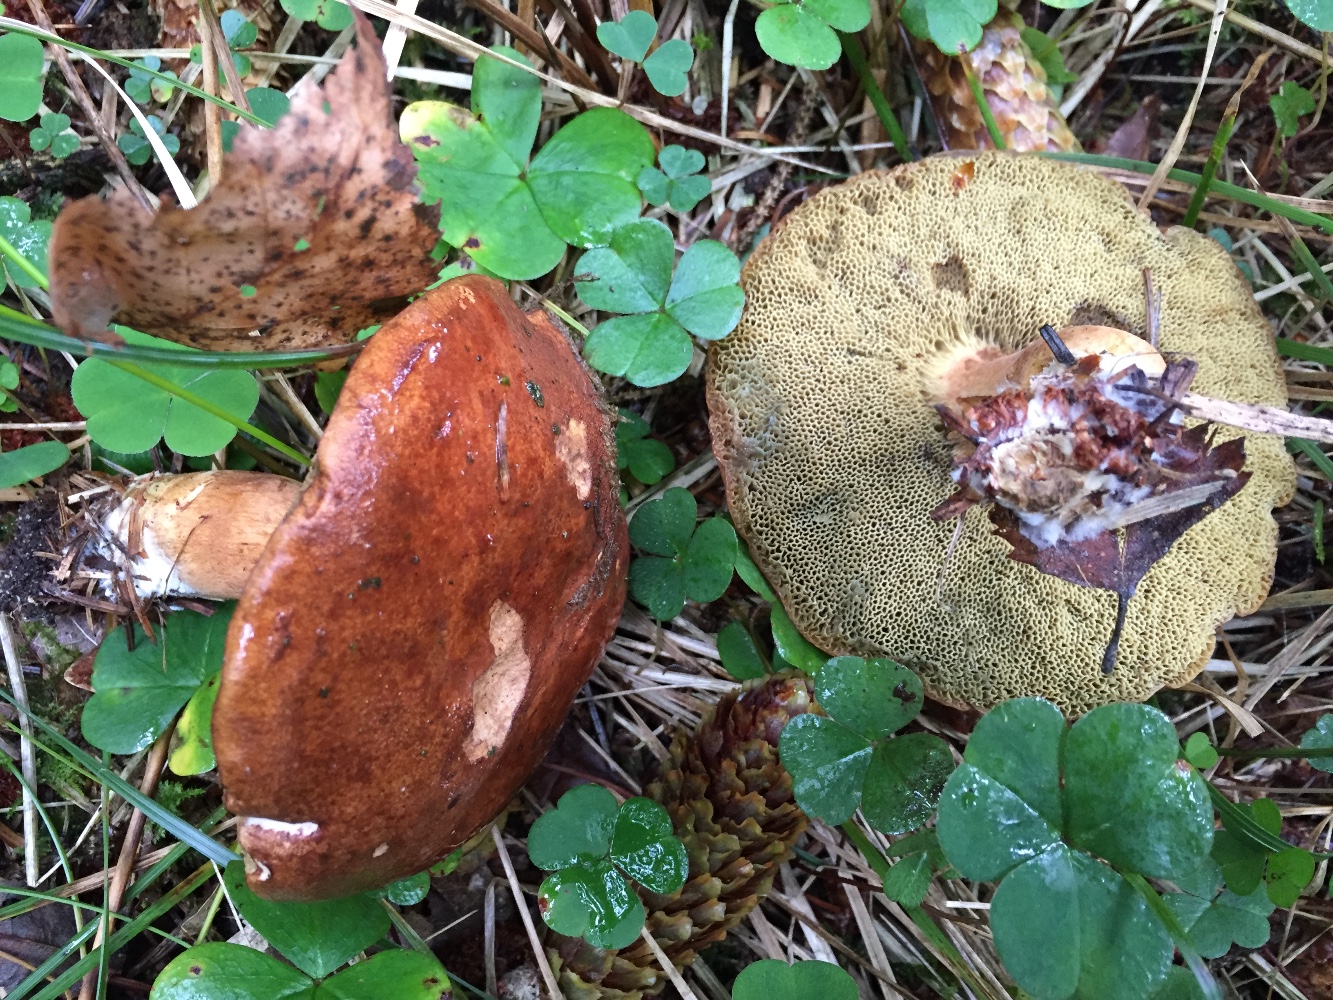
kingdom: Fungi
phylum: Basidiomycota
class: Agaricomycetes
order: Boletales
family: Boletaceae
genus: Imleria
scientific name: Imleria badia
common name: brunstokket rørhat
